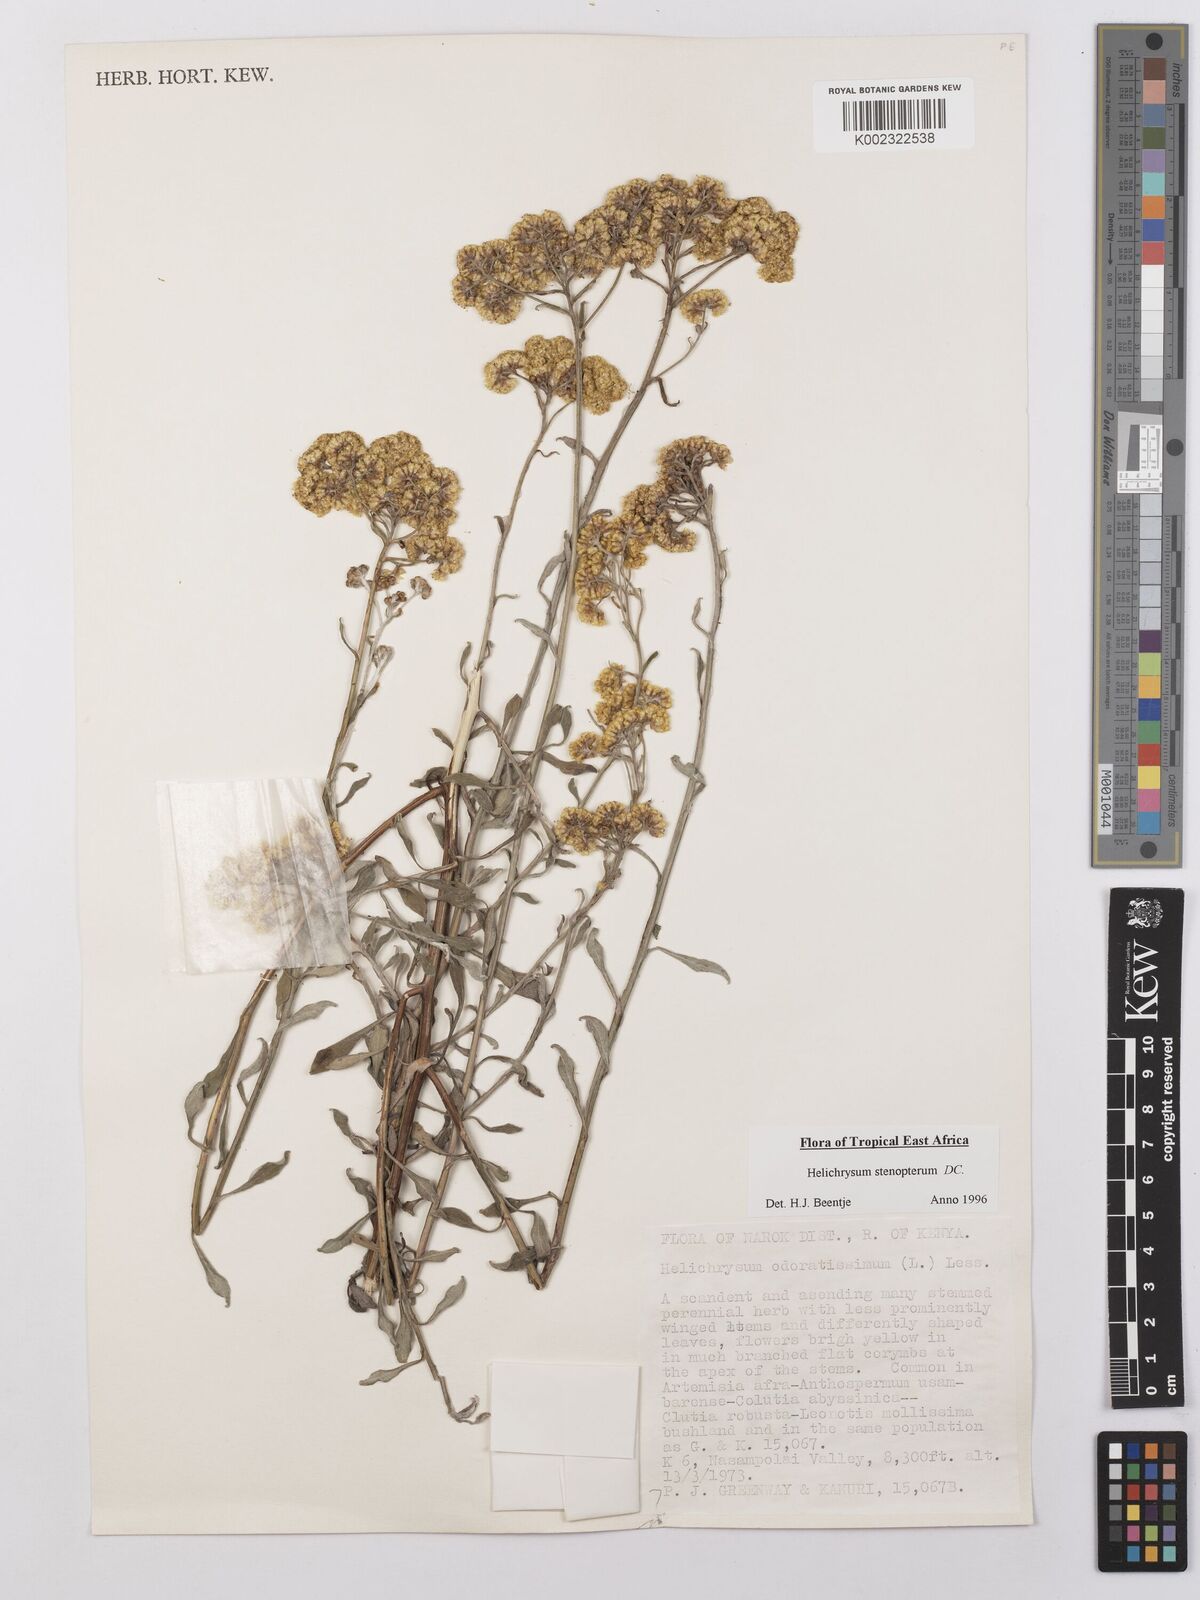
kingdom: Plantae
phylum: Tracheophyta
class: Magnoliopsida
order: Asterales
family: Asteraceae
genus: Helichrysum
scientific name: Helichrysum stenopterum
